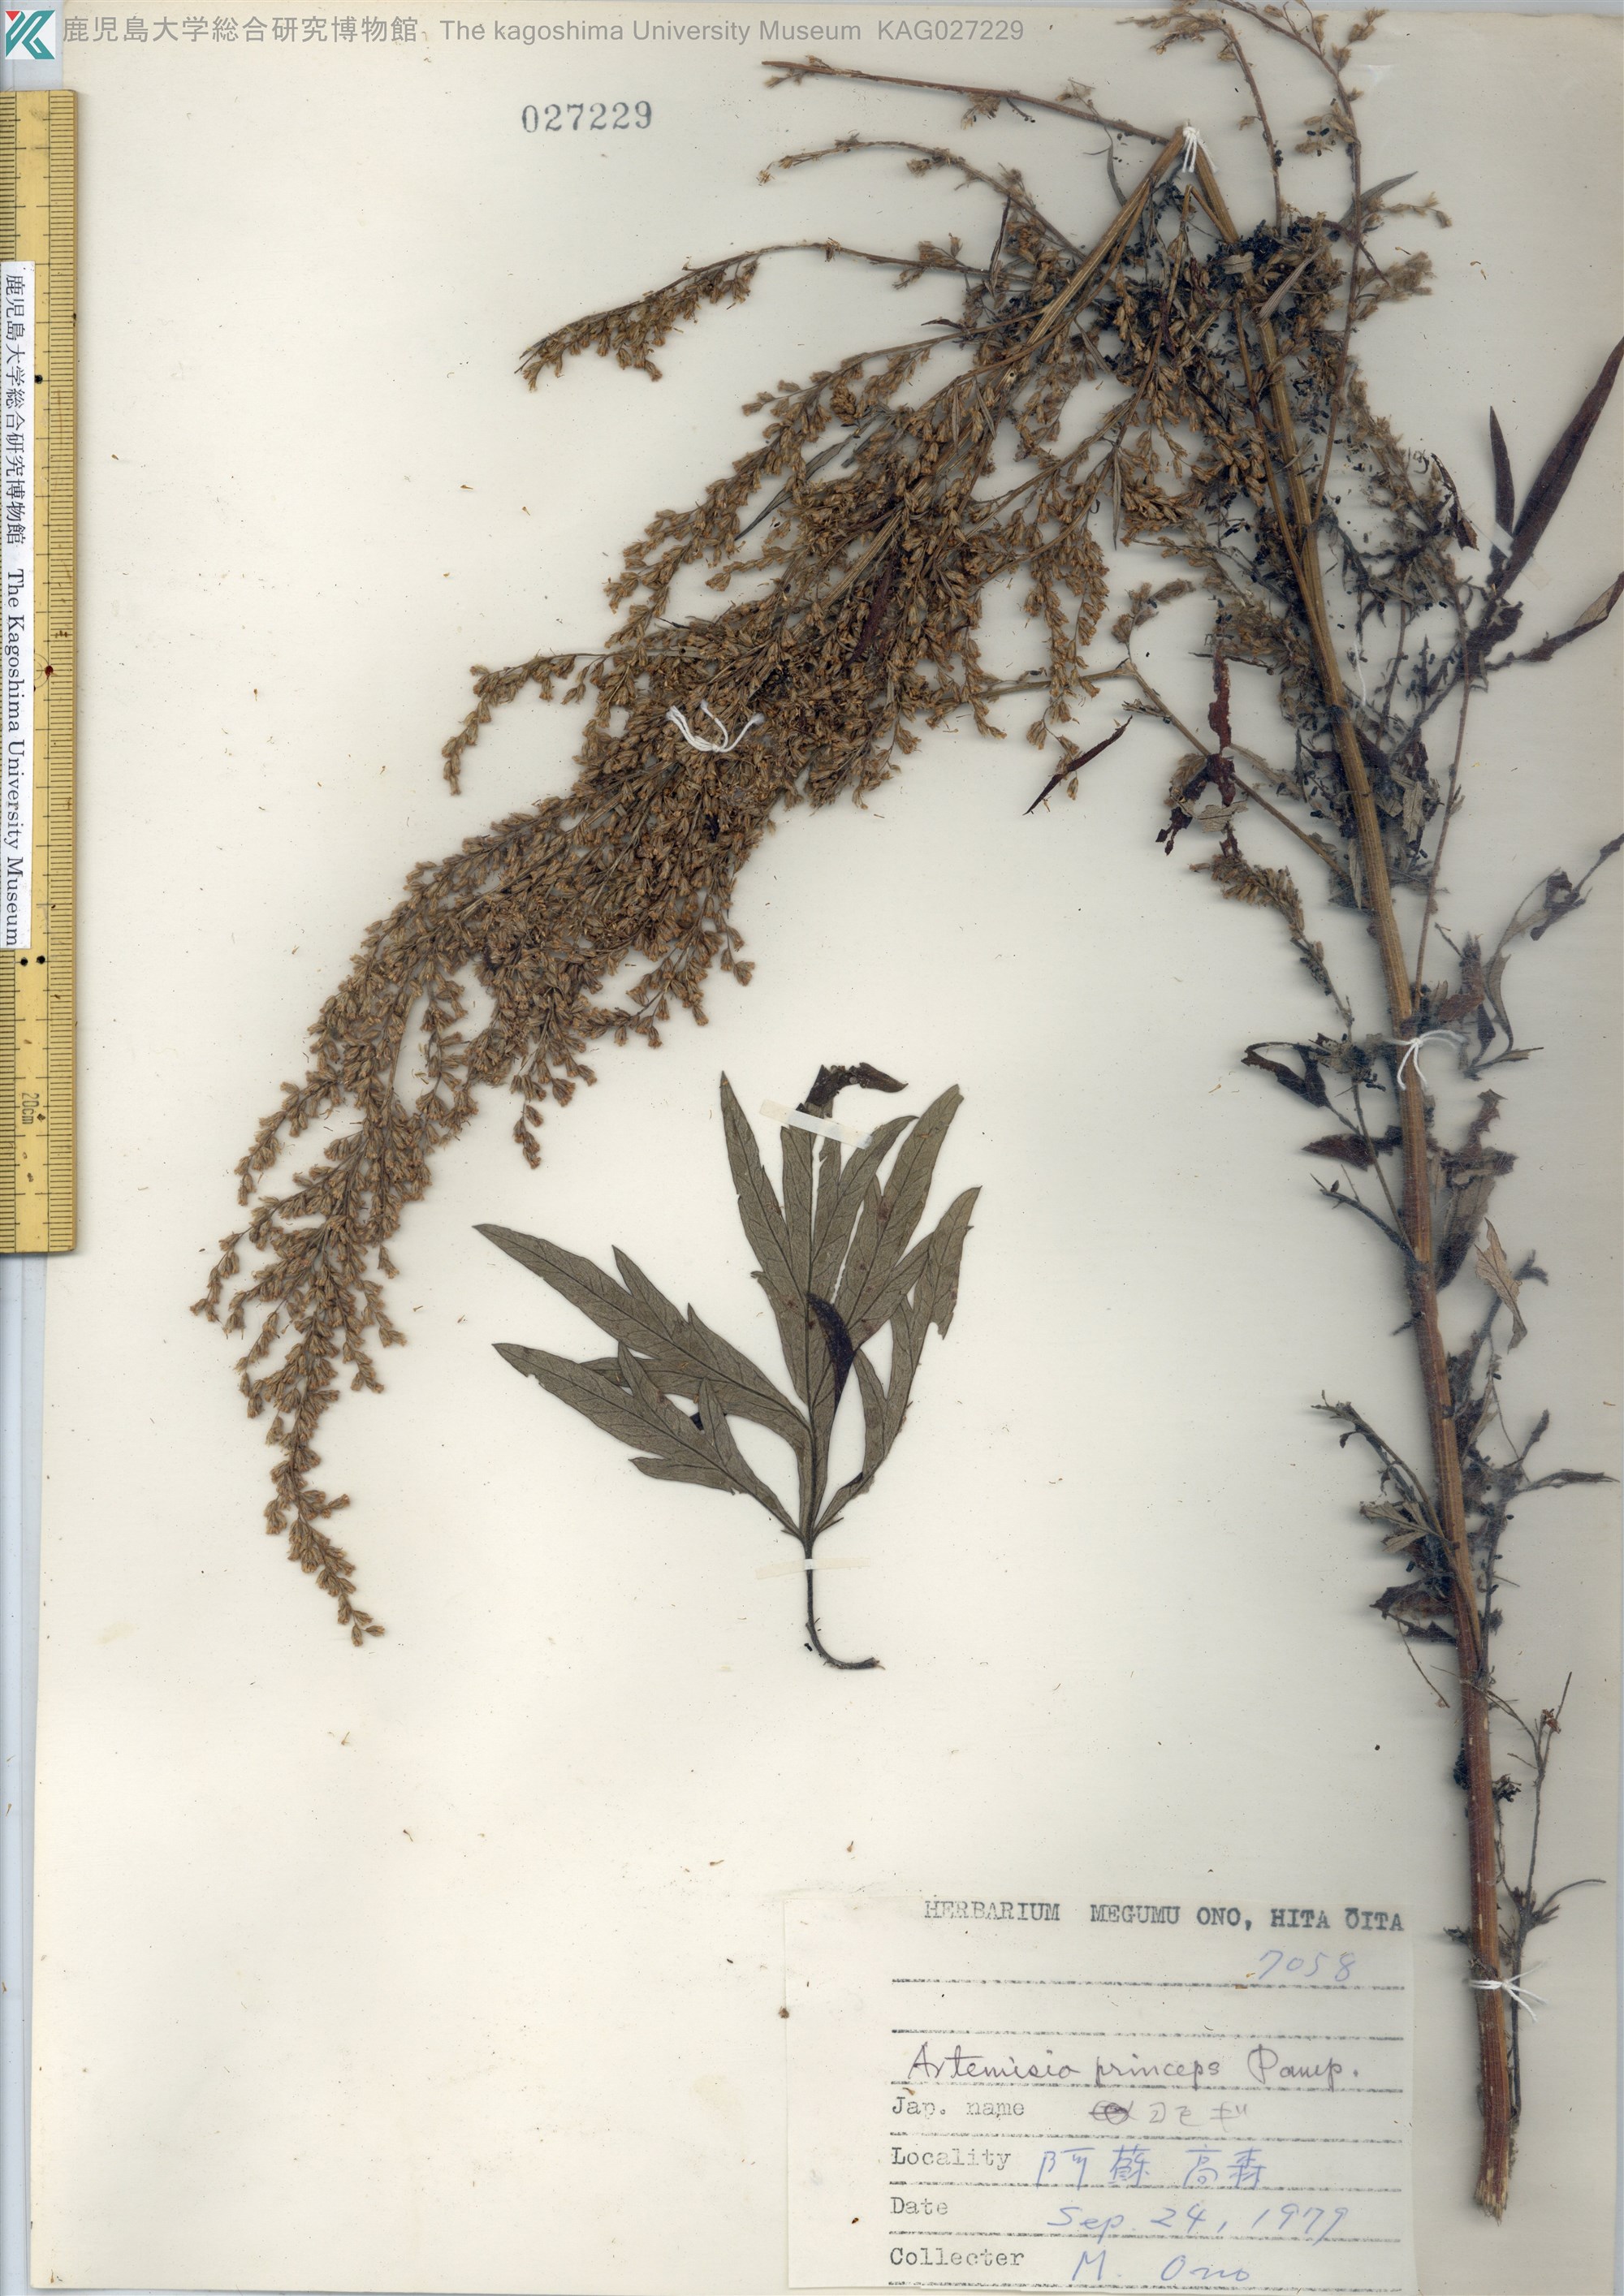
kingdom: Plantae
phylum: Tracheophyta
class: Magnoliopsida
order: Asterales
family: Asteraceae
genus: Artemisia
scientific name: Artemisia princeps
